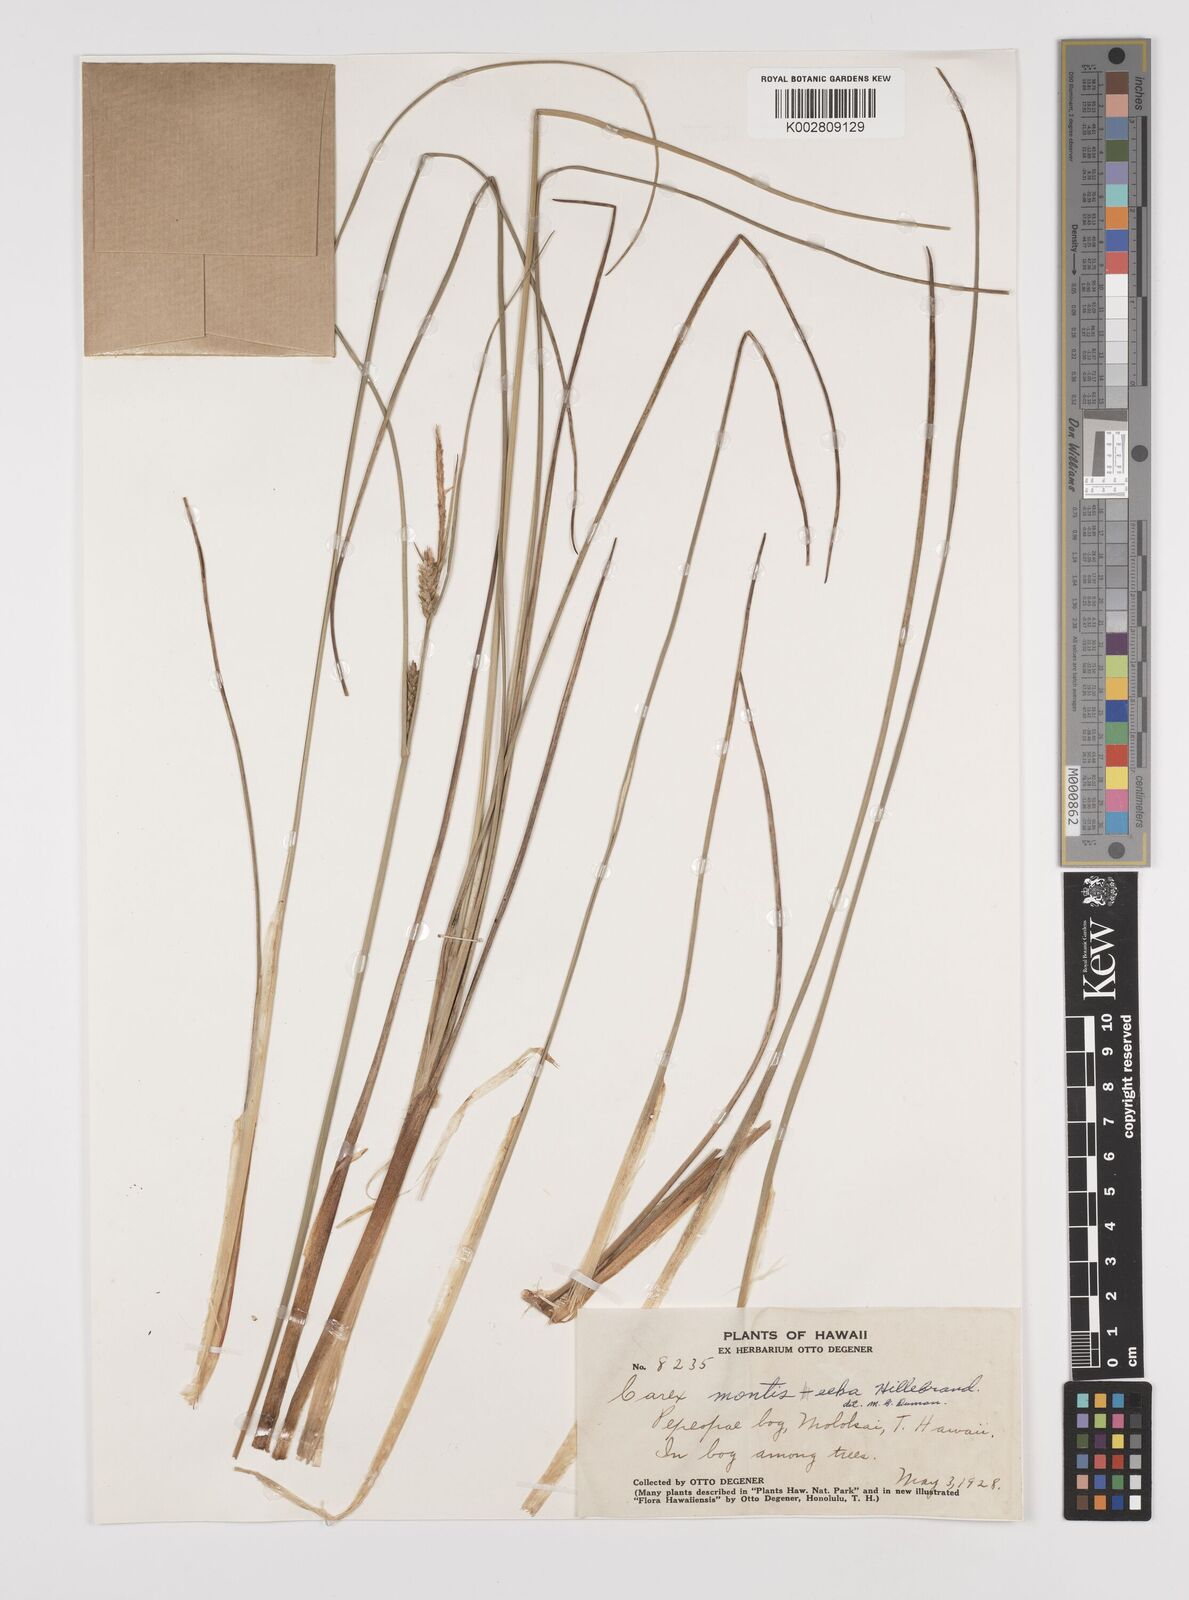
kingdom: Plantae
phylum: Tracheophyta
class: Liliopsida
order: Poales
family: Cyperaceae
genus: Carex
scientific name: Carex montis-eeka
